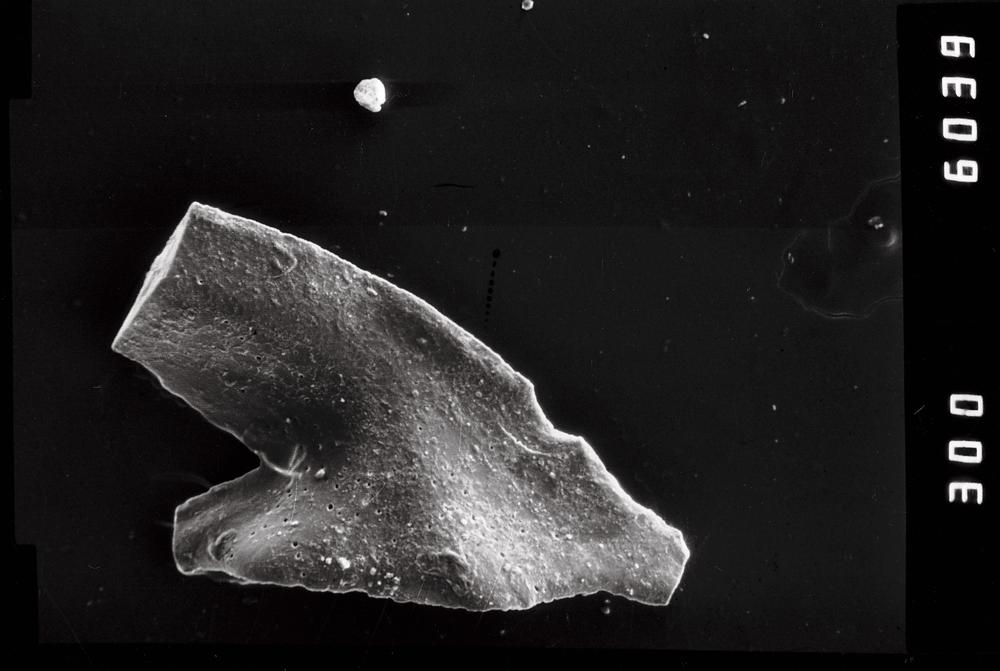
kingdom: Animalia
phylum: Chordata
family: Acodontidae
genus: Tripodus
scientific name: Tripodus
